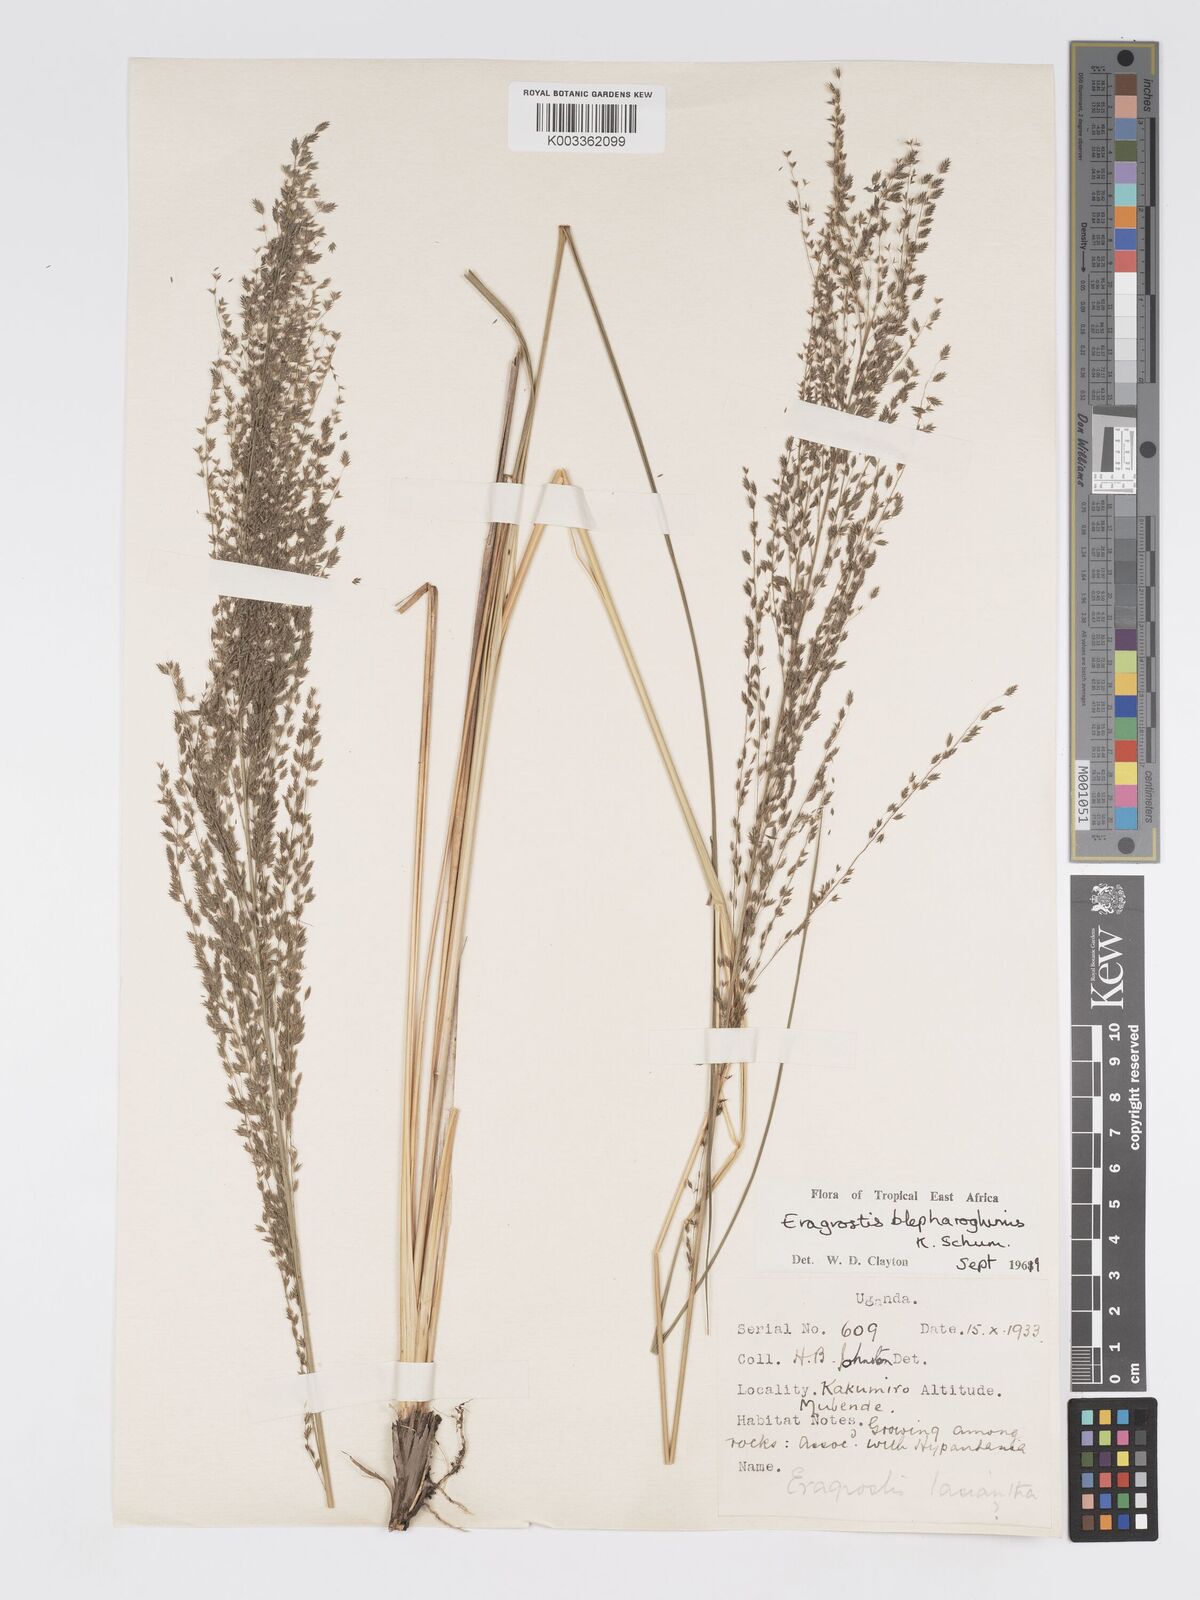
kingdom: Plantae
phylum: Tracheophyta
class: Liliopsida
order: Poales
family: Poaceae
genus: Eragrostis
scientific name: Eragrostis olivacea
